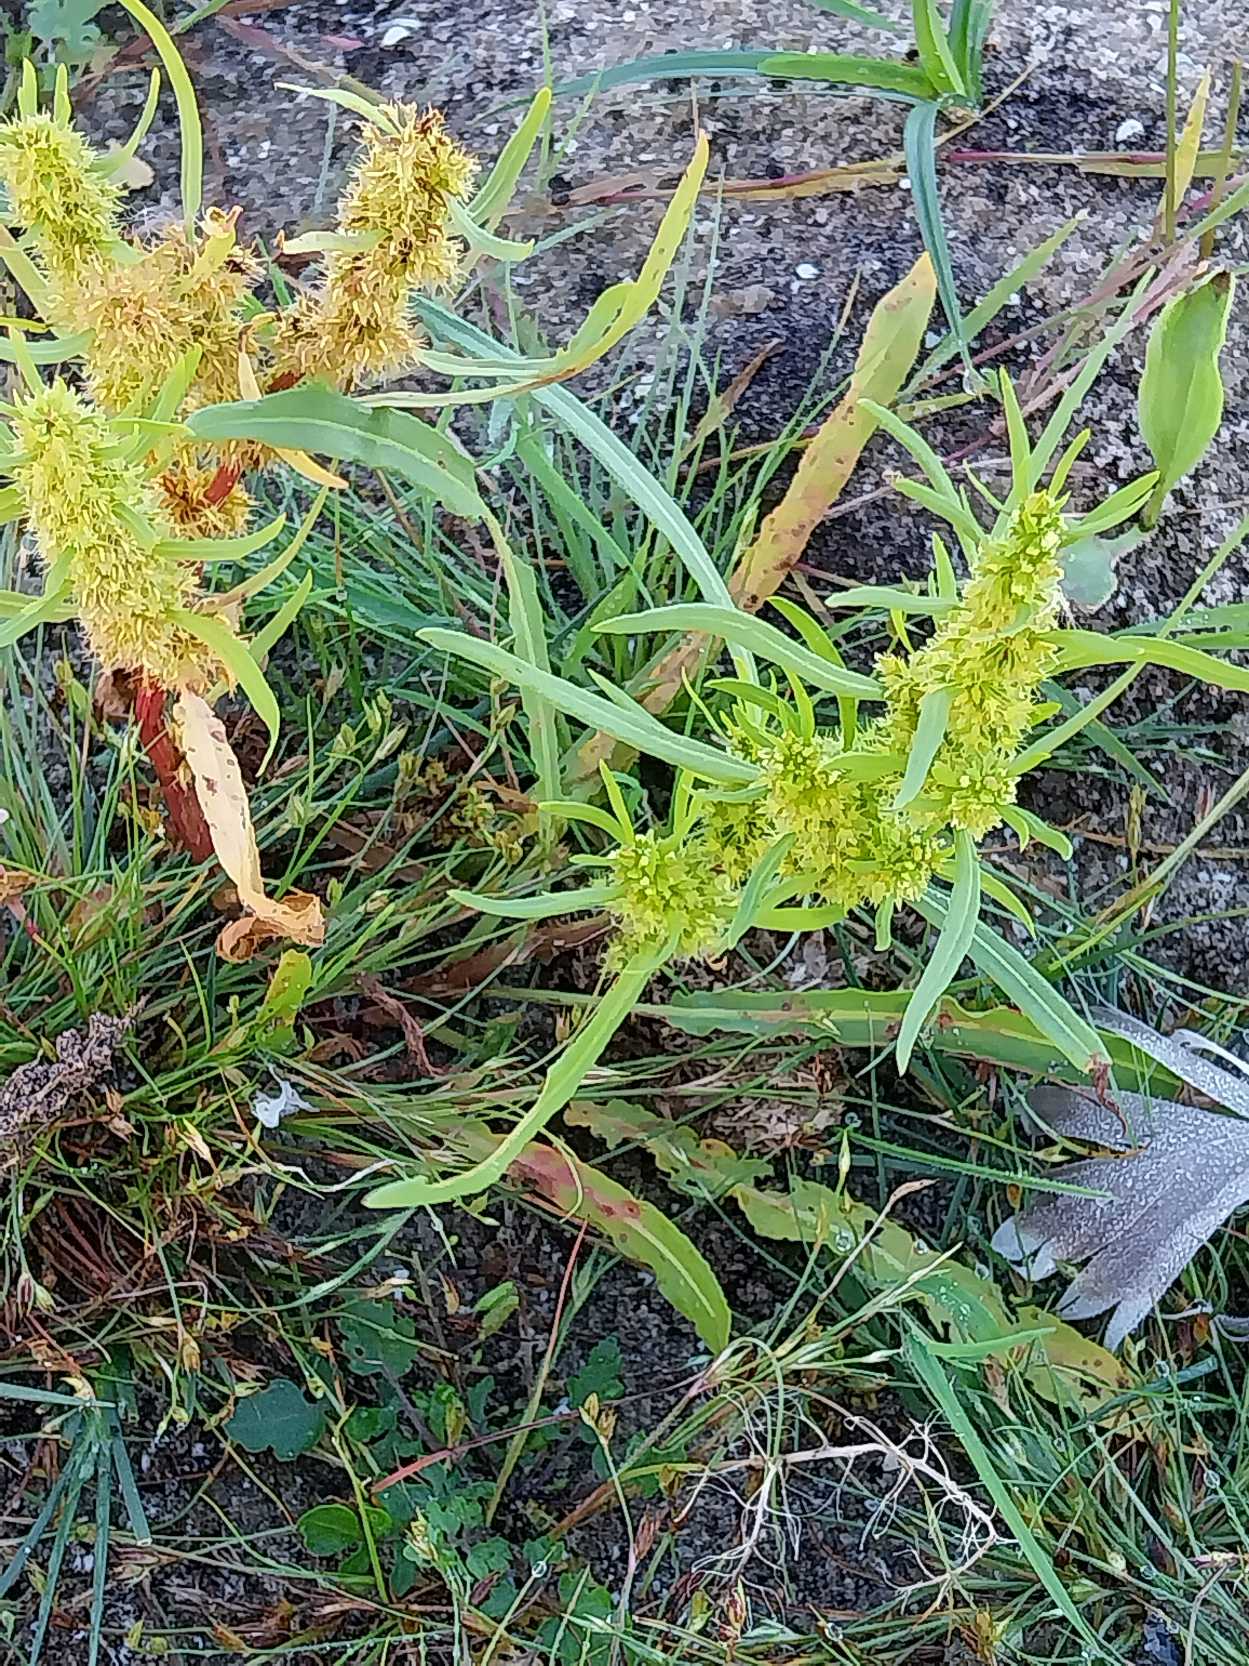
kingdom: Plantae
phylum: Tracheophyta
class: Magnoliopsida
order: Caryophyllales
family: Polygonaceae
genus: Rumex
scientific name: Rumex maritimus
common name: Strand-skræppe
